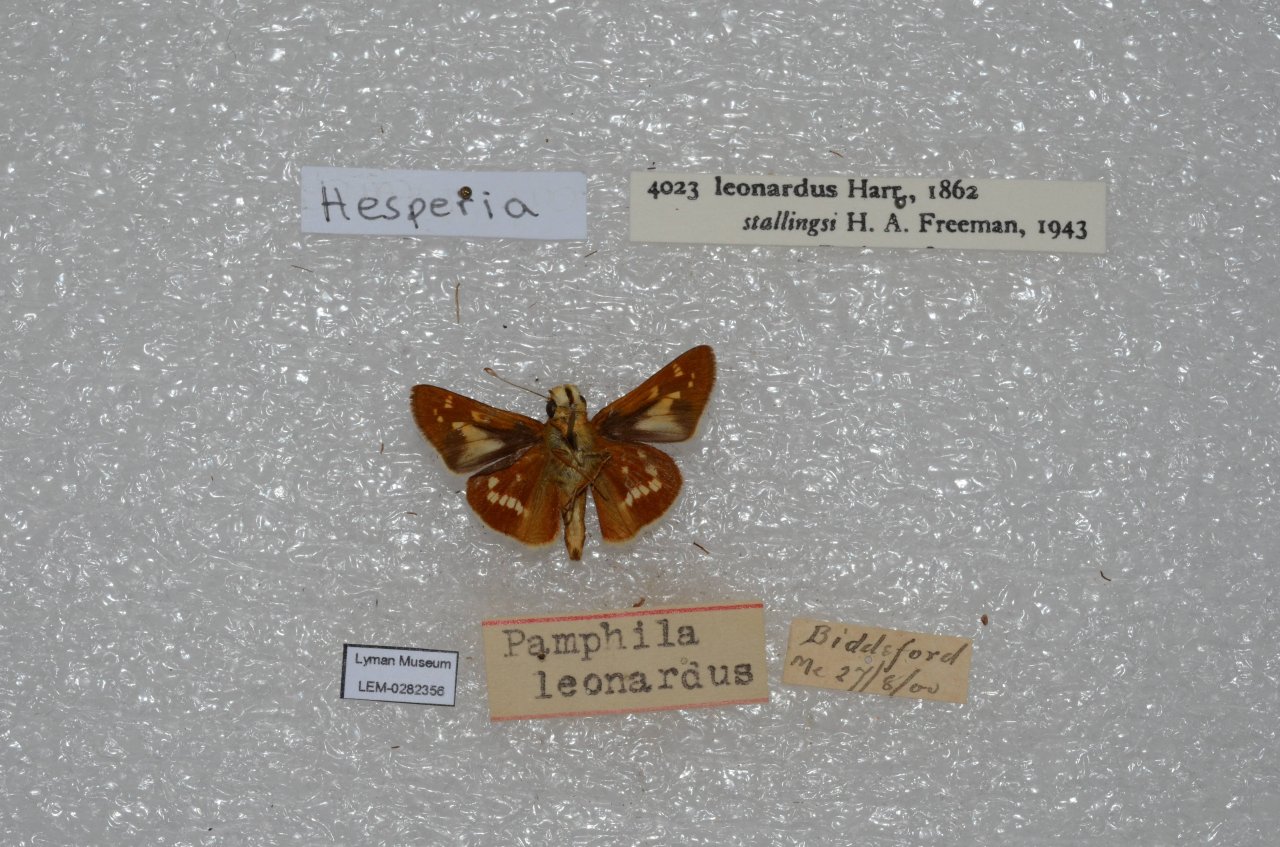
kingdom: Animalia
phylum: Arthropoda
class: Insecta
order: Lepidoptera
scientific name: Lepidoptera
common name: Butterflies
